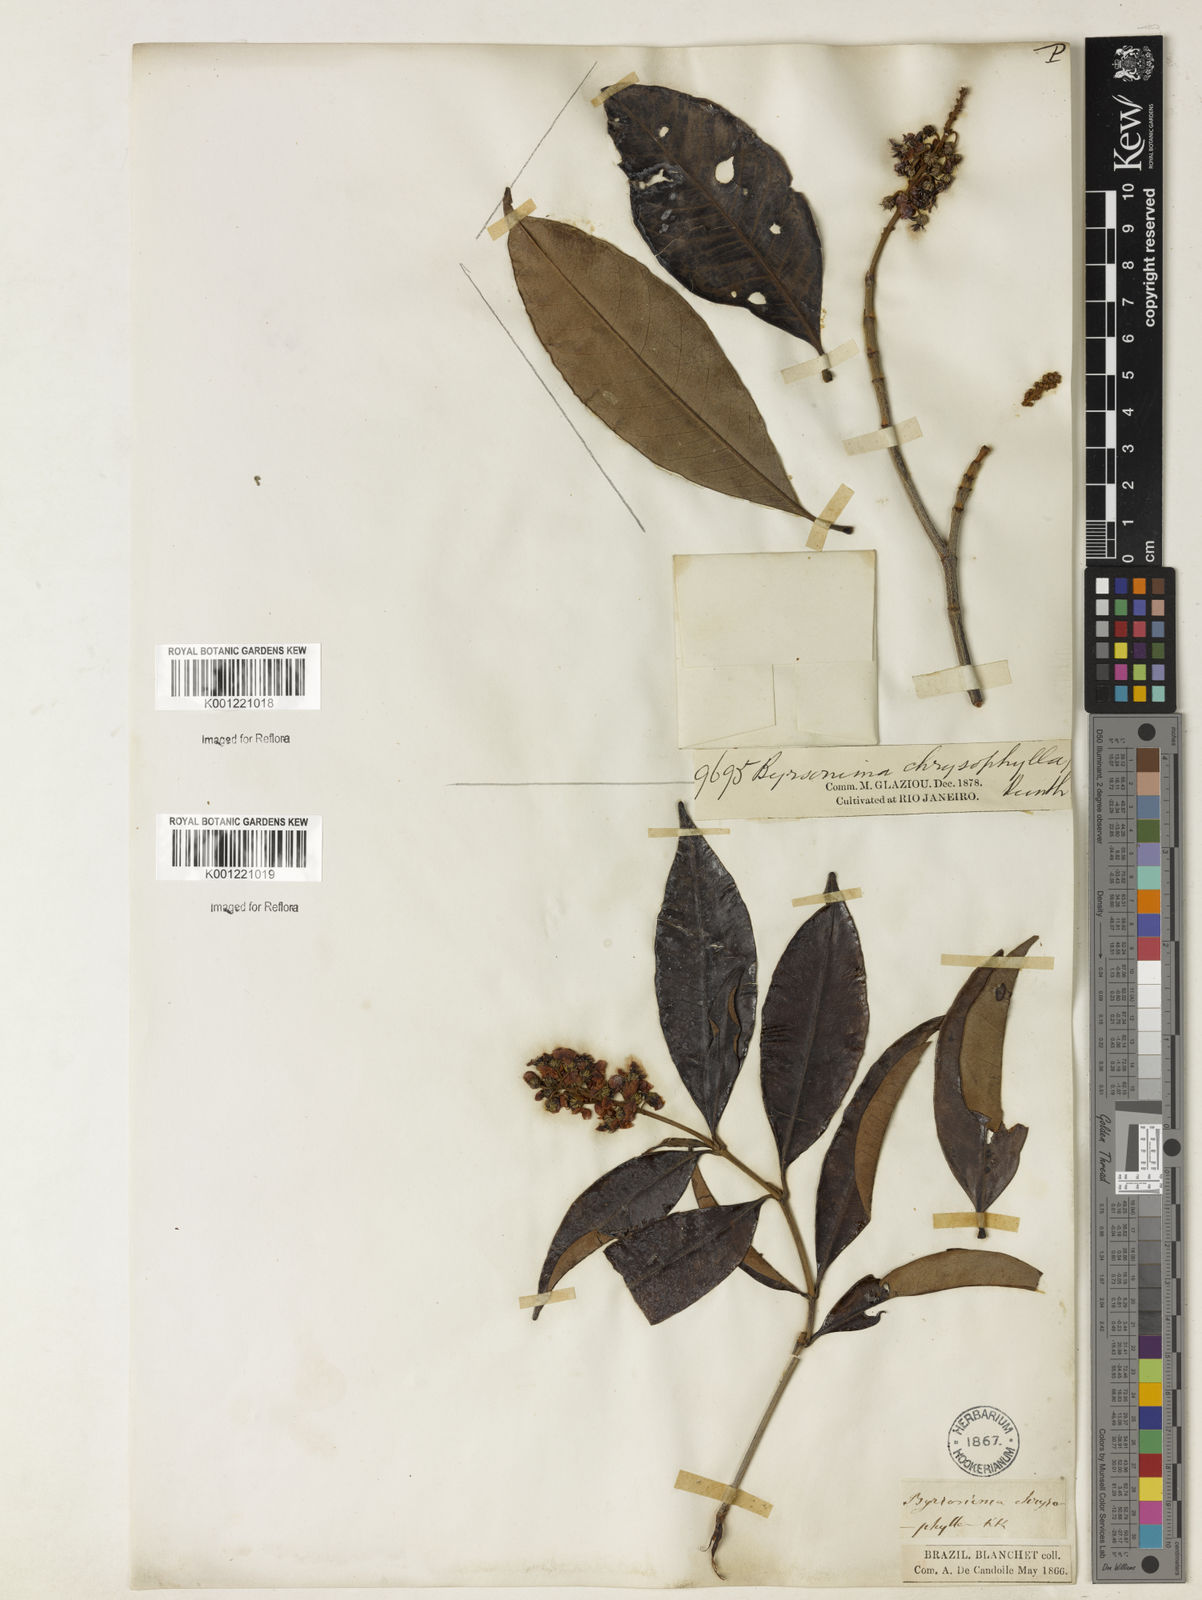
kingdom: Plantae
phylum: Tracheophyta
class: Magnoliopsida
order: Malpighiales
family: Malpighiaceae
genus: Byrsonima
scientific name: Byrsonima sericea
